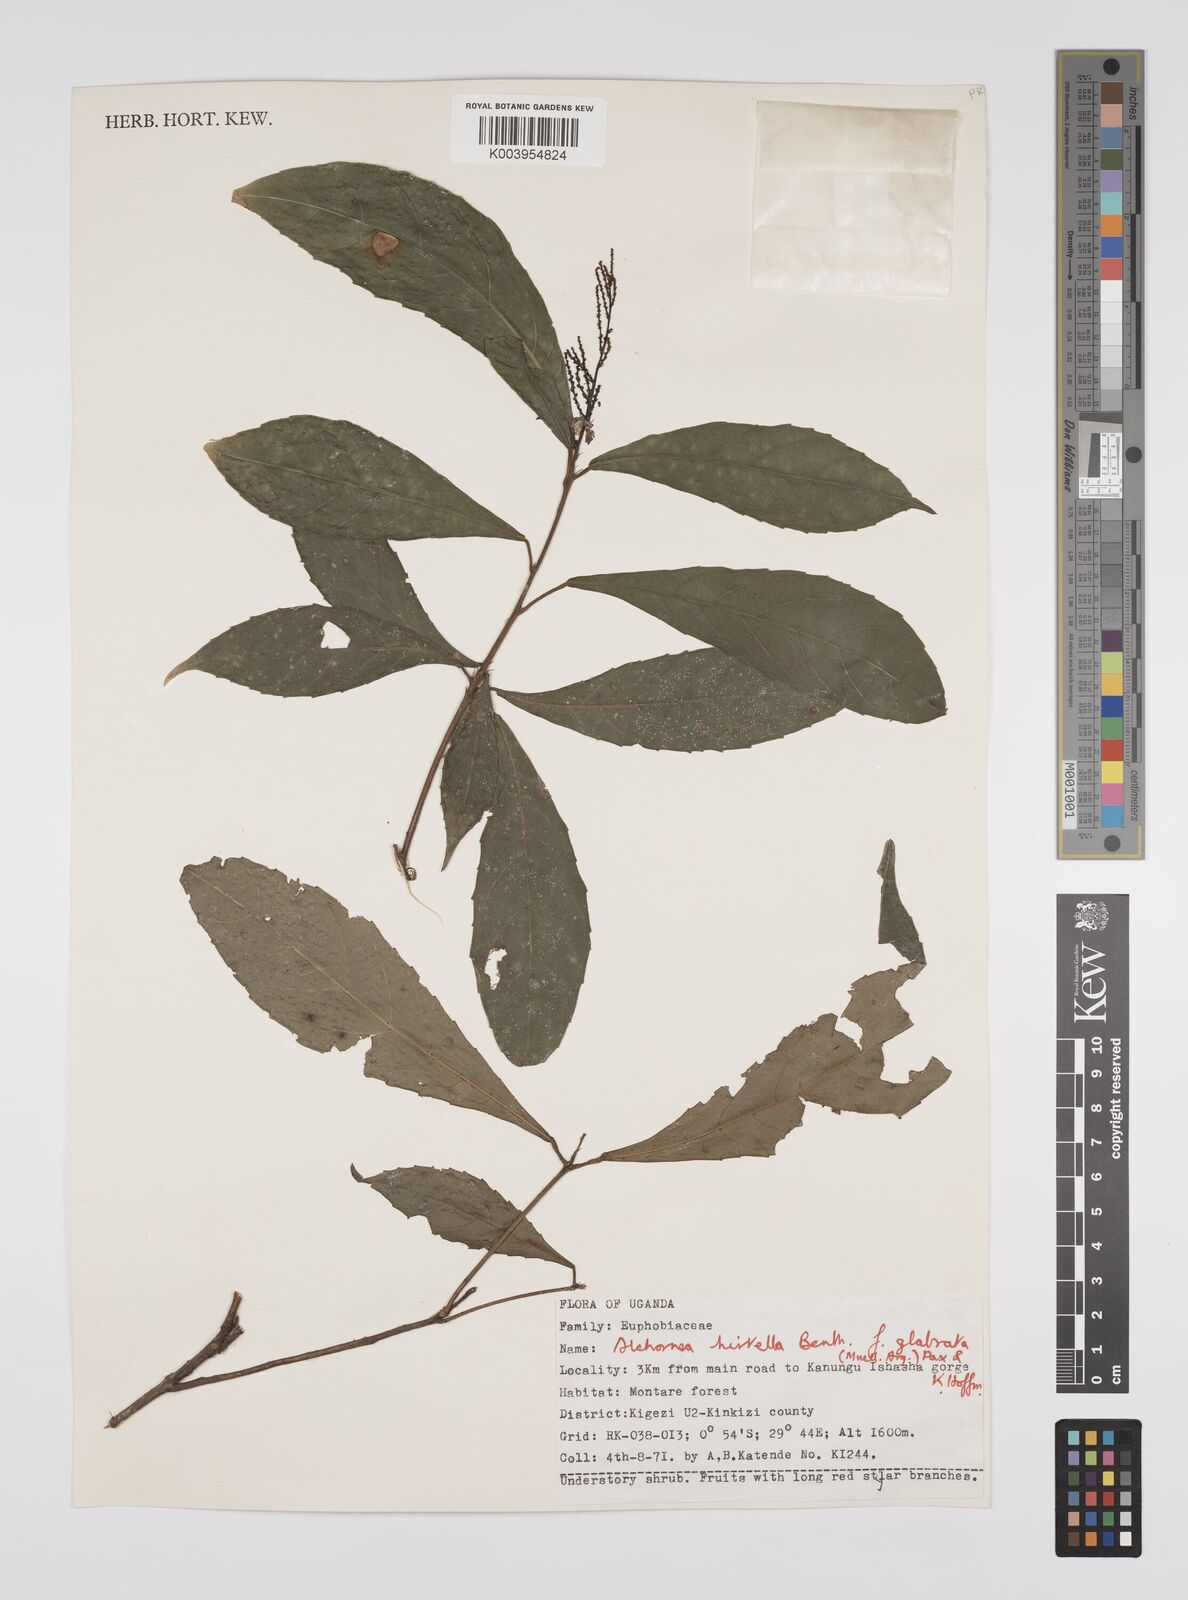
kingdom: Plantae
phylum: Tracheophyta
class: Magnoliopsida
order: Malpighiales
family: Euphorbiaceae
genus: Alchornea
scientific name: Alchornea hirtella
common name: Forest bead-string
